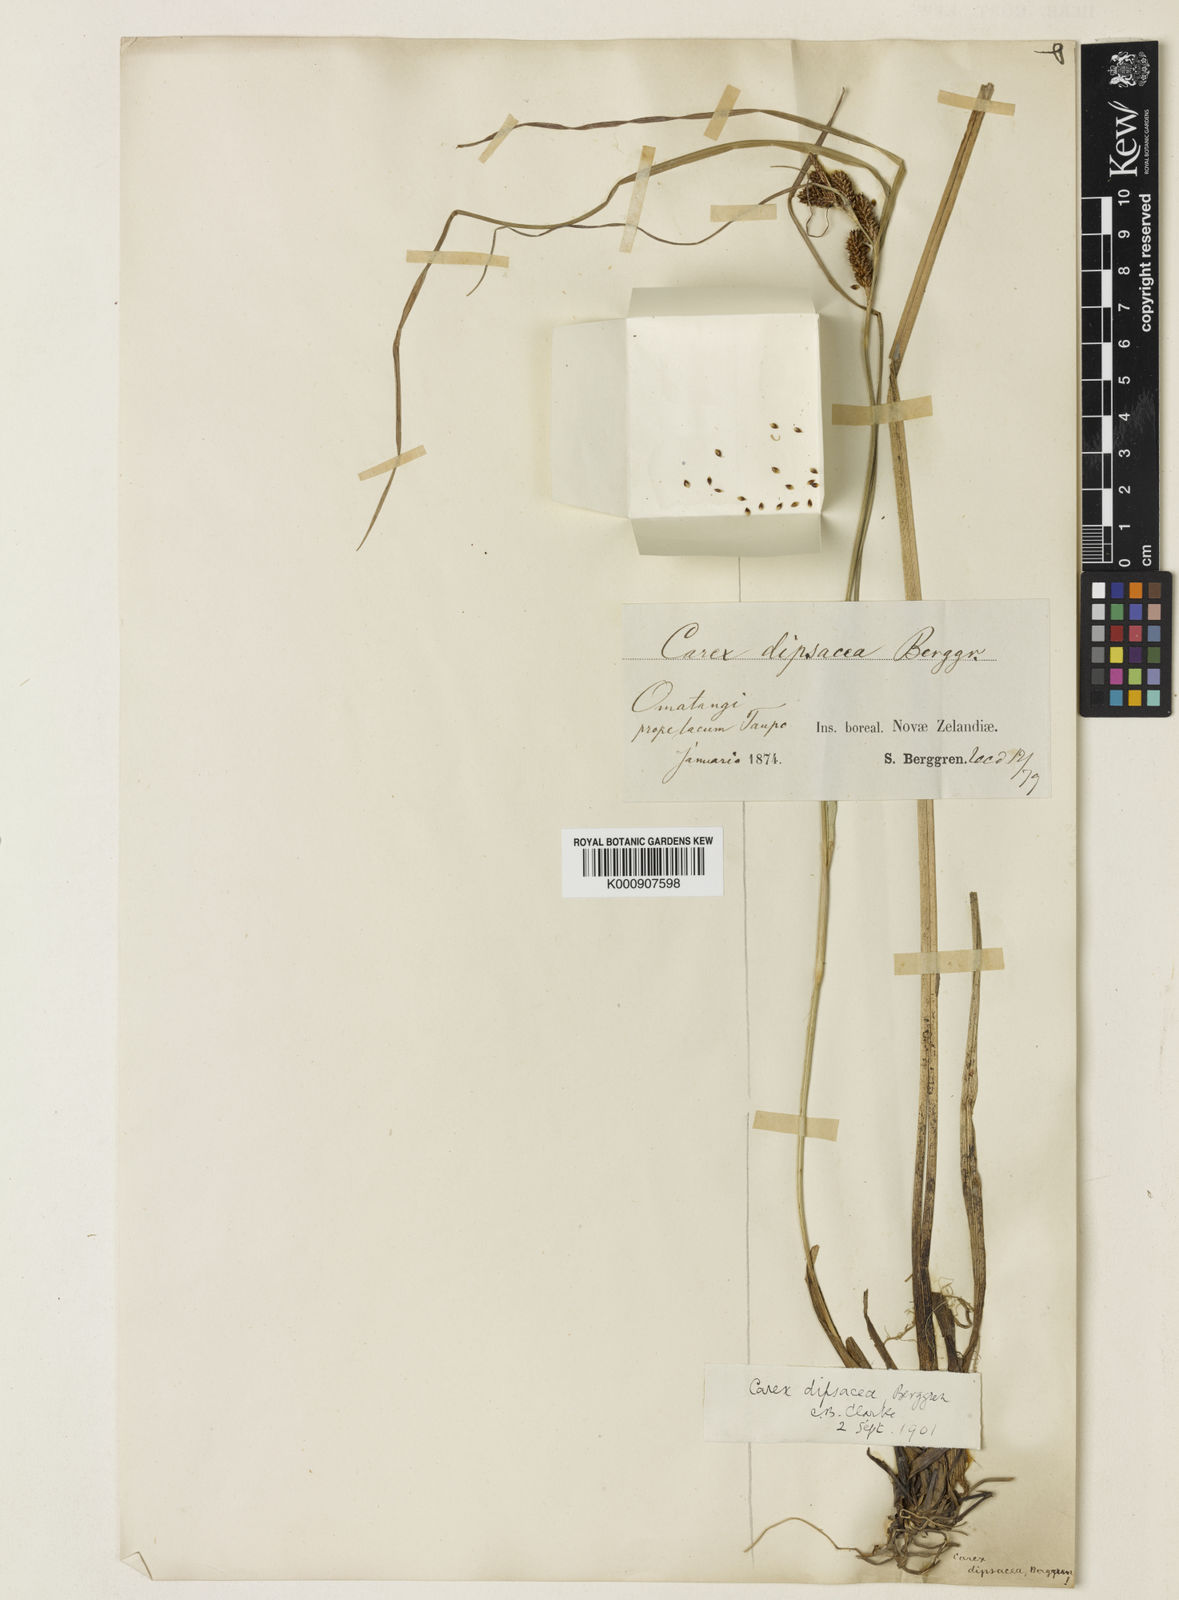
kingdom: Plantae
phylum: Tracheophyta
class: Liliopsida
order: Poales
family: Cyperaceae
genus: Carex
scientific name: Carex dipsacea
